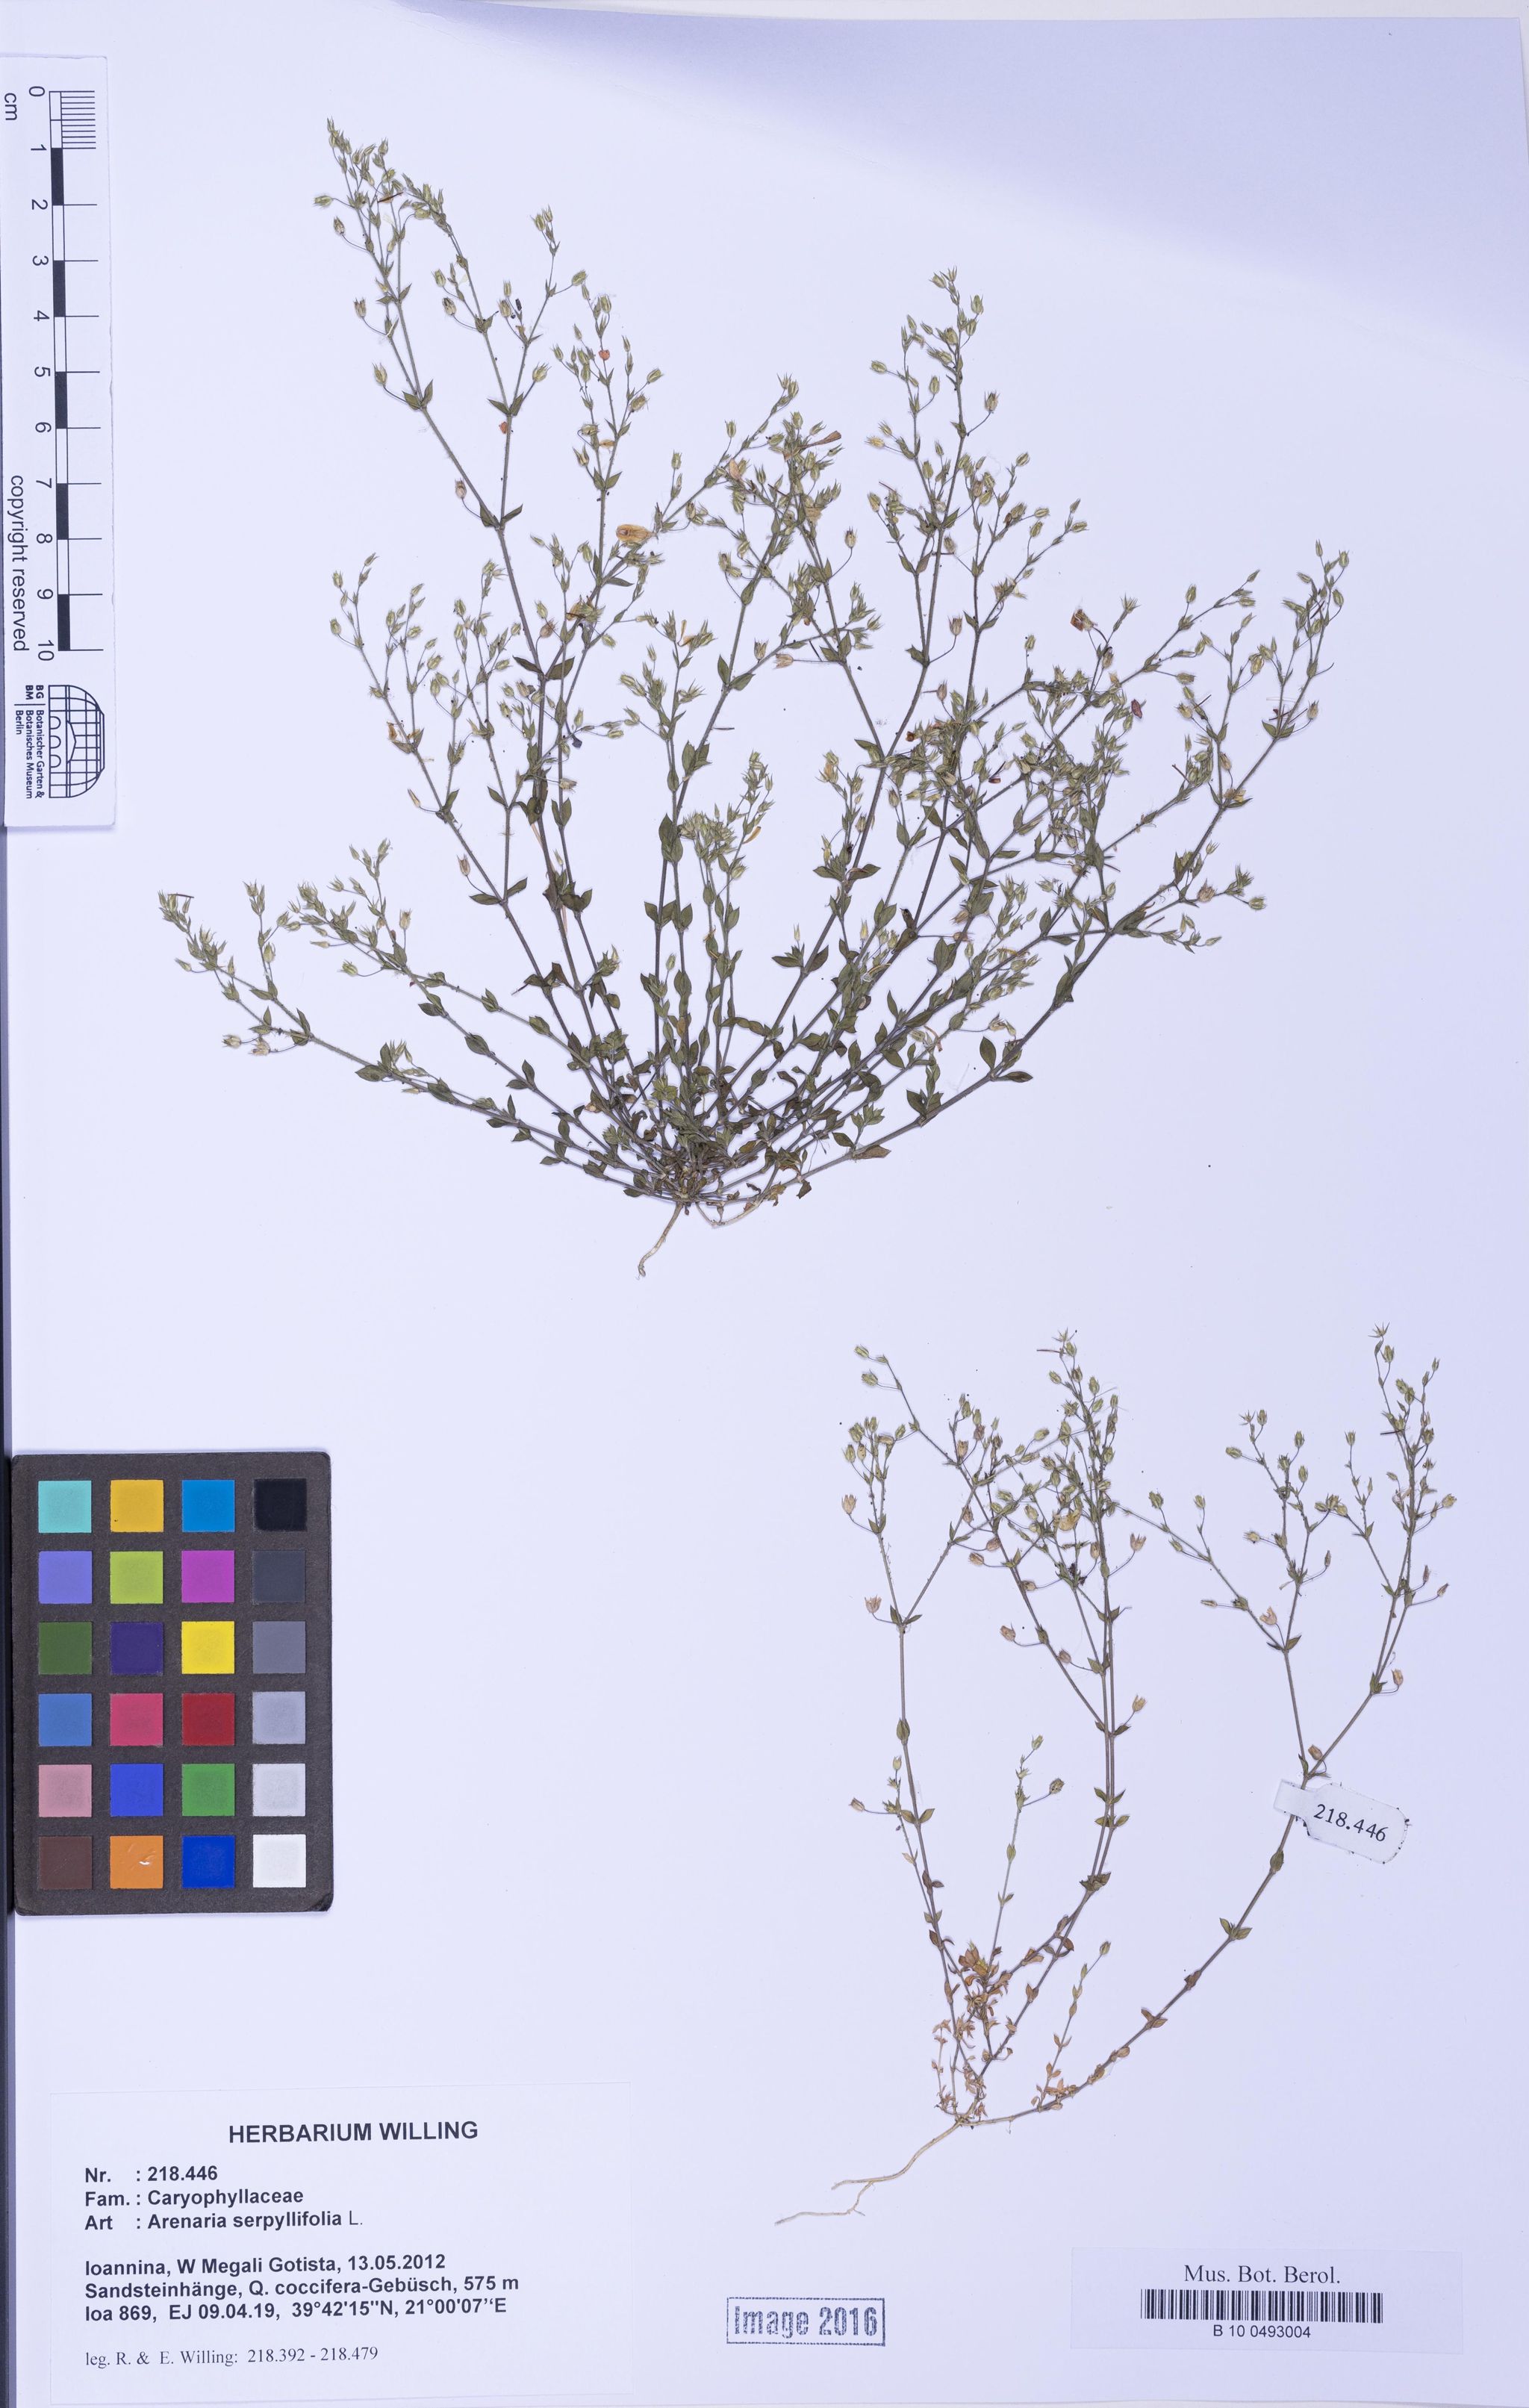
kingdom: Plantae
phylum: Tracheophyta
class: Magnoliopsida
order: Caryophyllales
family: Caryophyllaceae
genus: Arenaria
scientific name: Arenaria serpyllifolia
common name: Thyme-leaved sandwort
